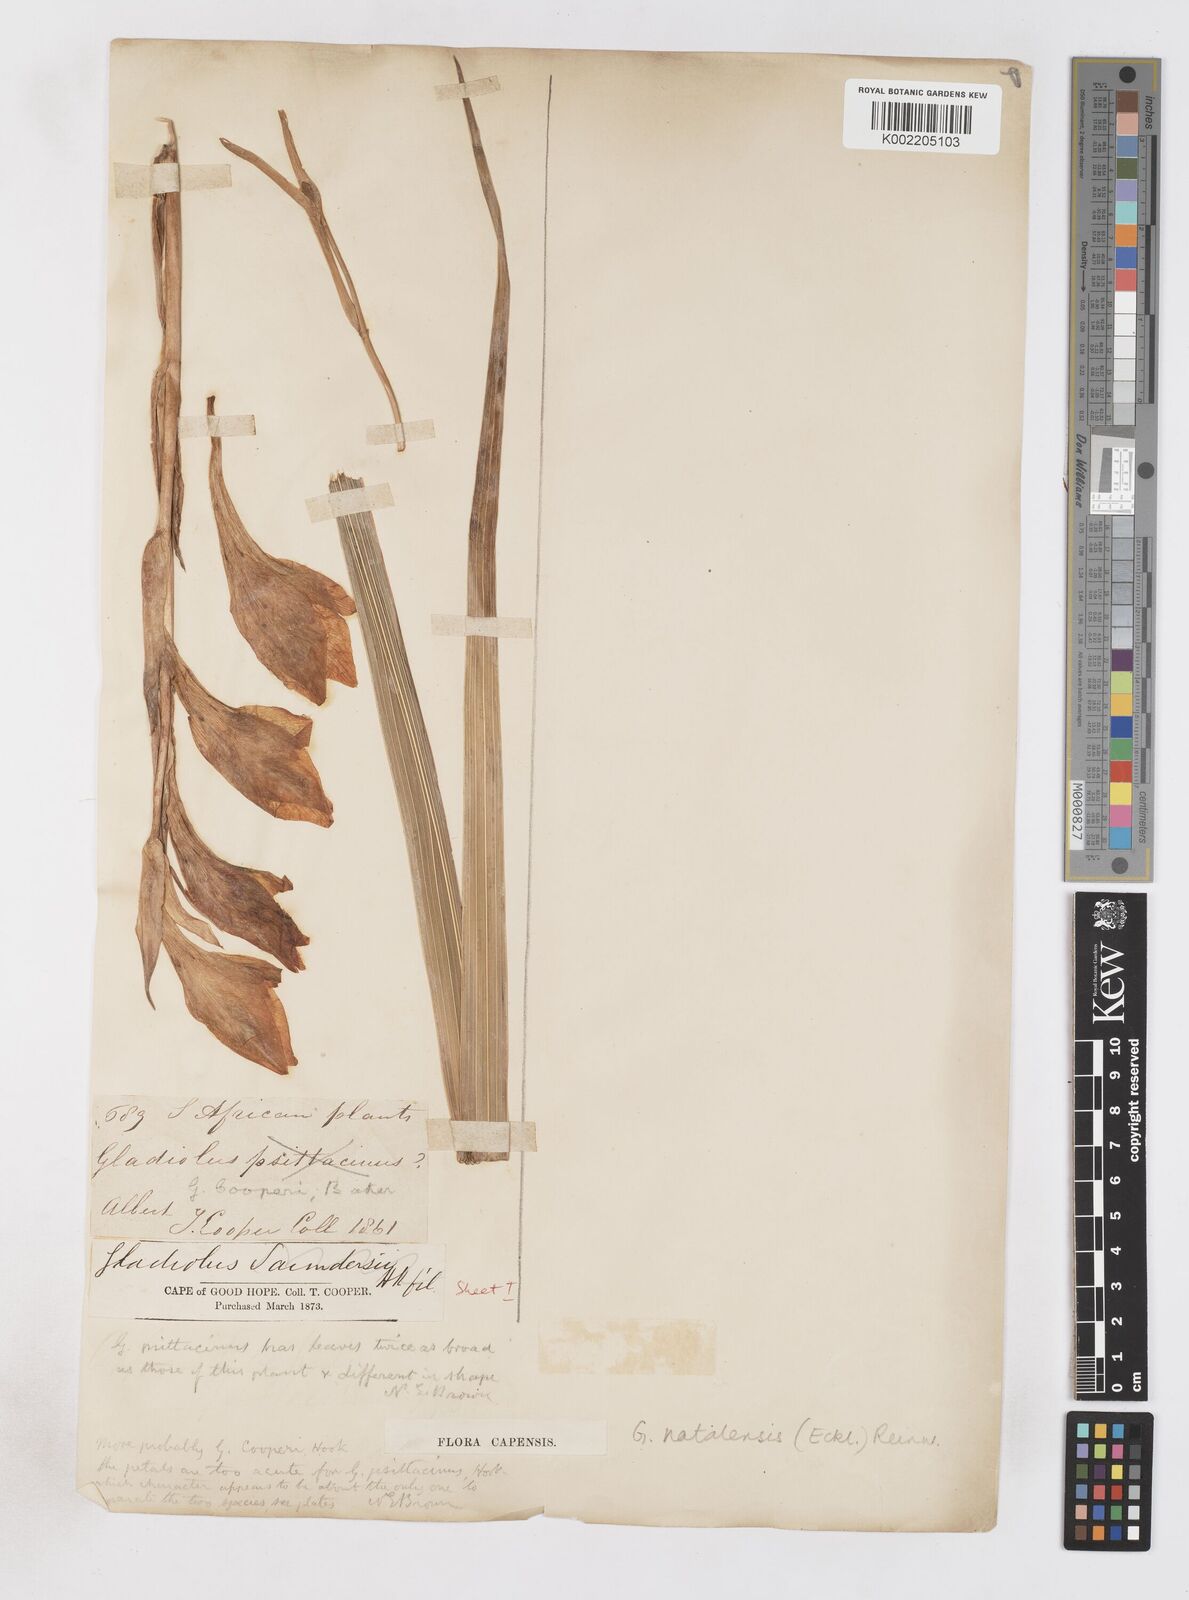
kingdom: Plantae
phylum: Tracheophyta
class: Liliopsida
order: Asparagales
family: Iridaceae
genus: Gladiolus
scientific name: Gladiolus dalenii
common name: Cornflag
